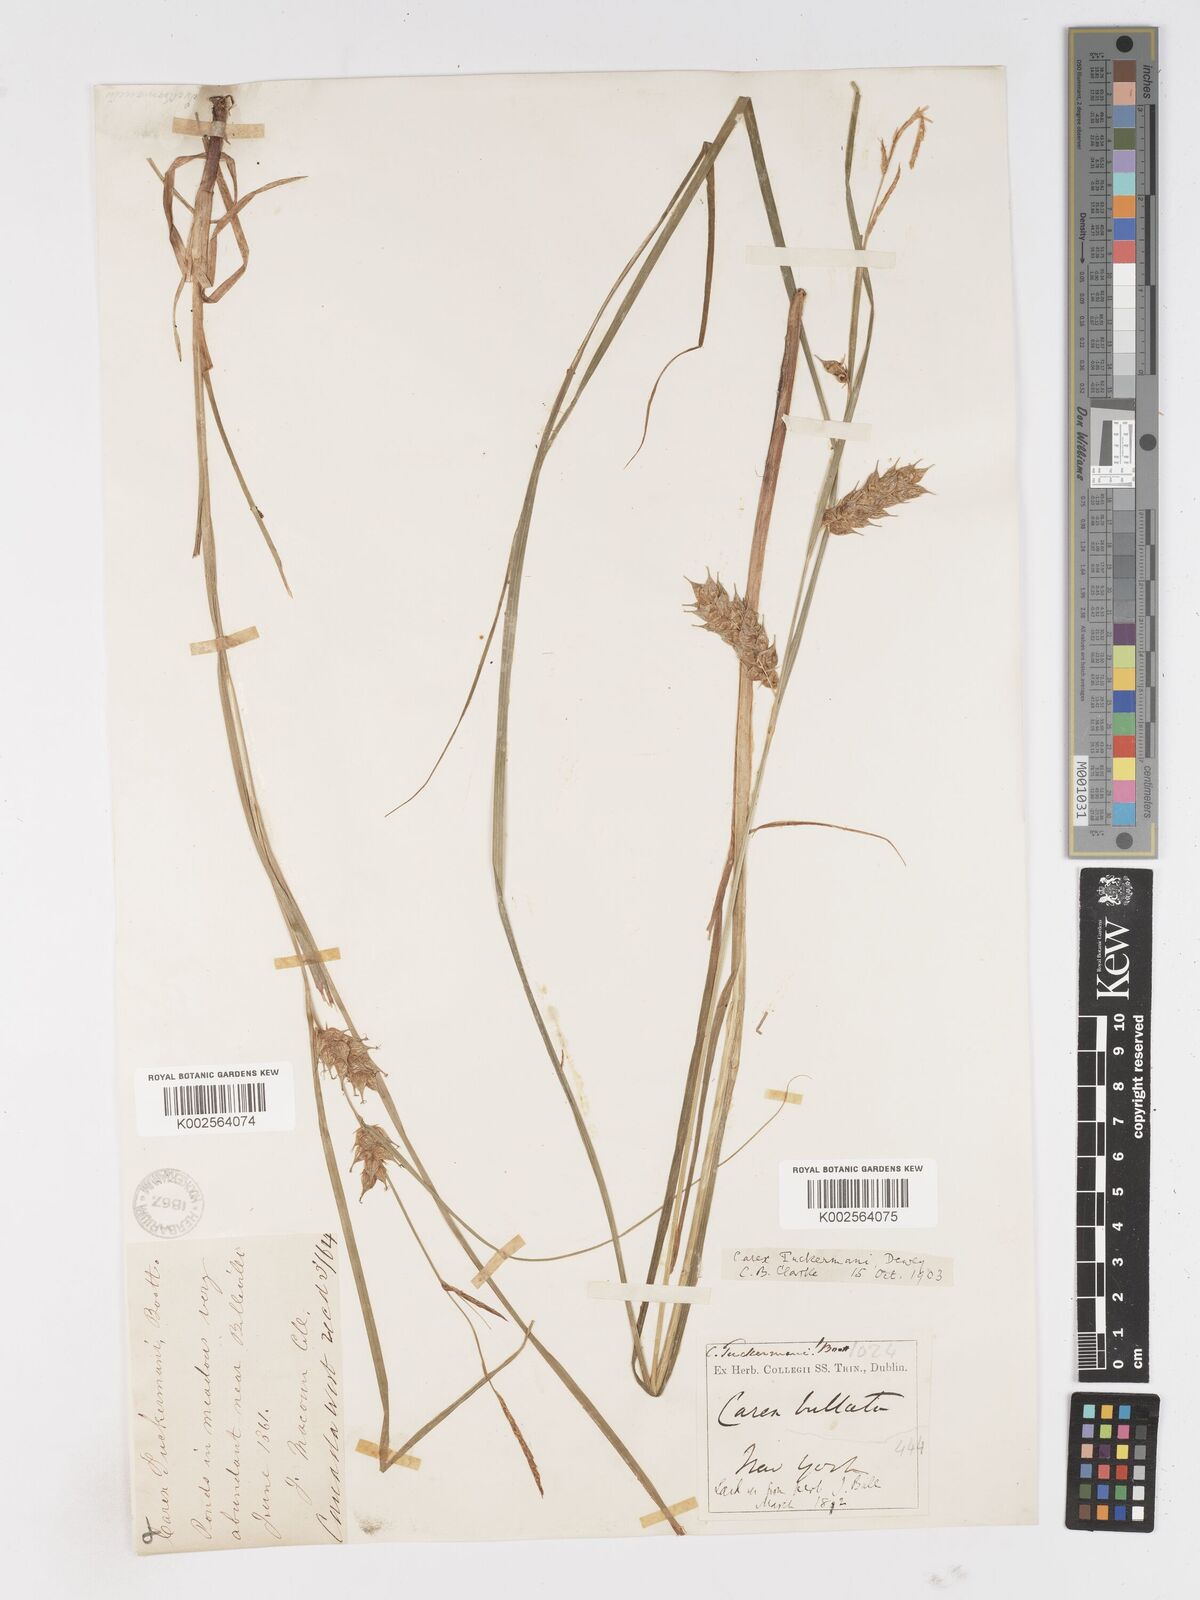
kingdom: Plantae
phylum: Tracheophyta
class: Liliopsida
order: Poales
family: Cyperaceae
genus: Carex
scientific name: Carex tuckermanii
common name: Tuckerman's sedge
